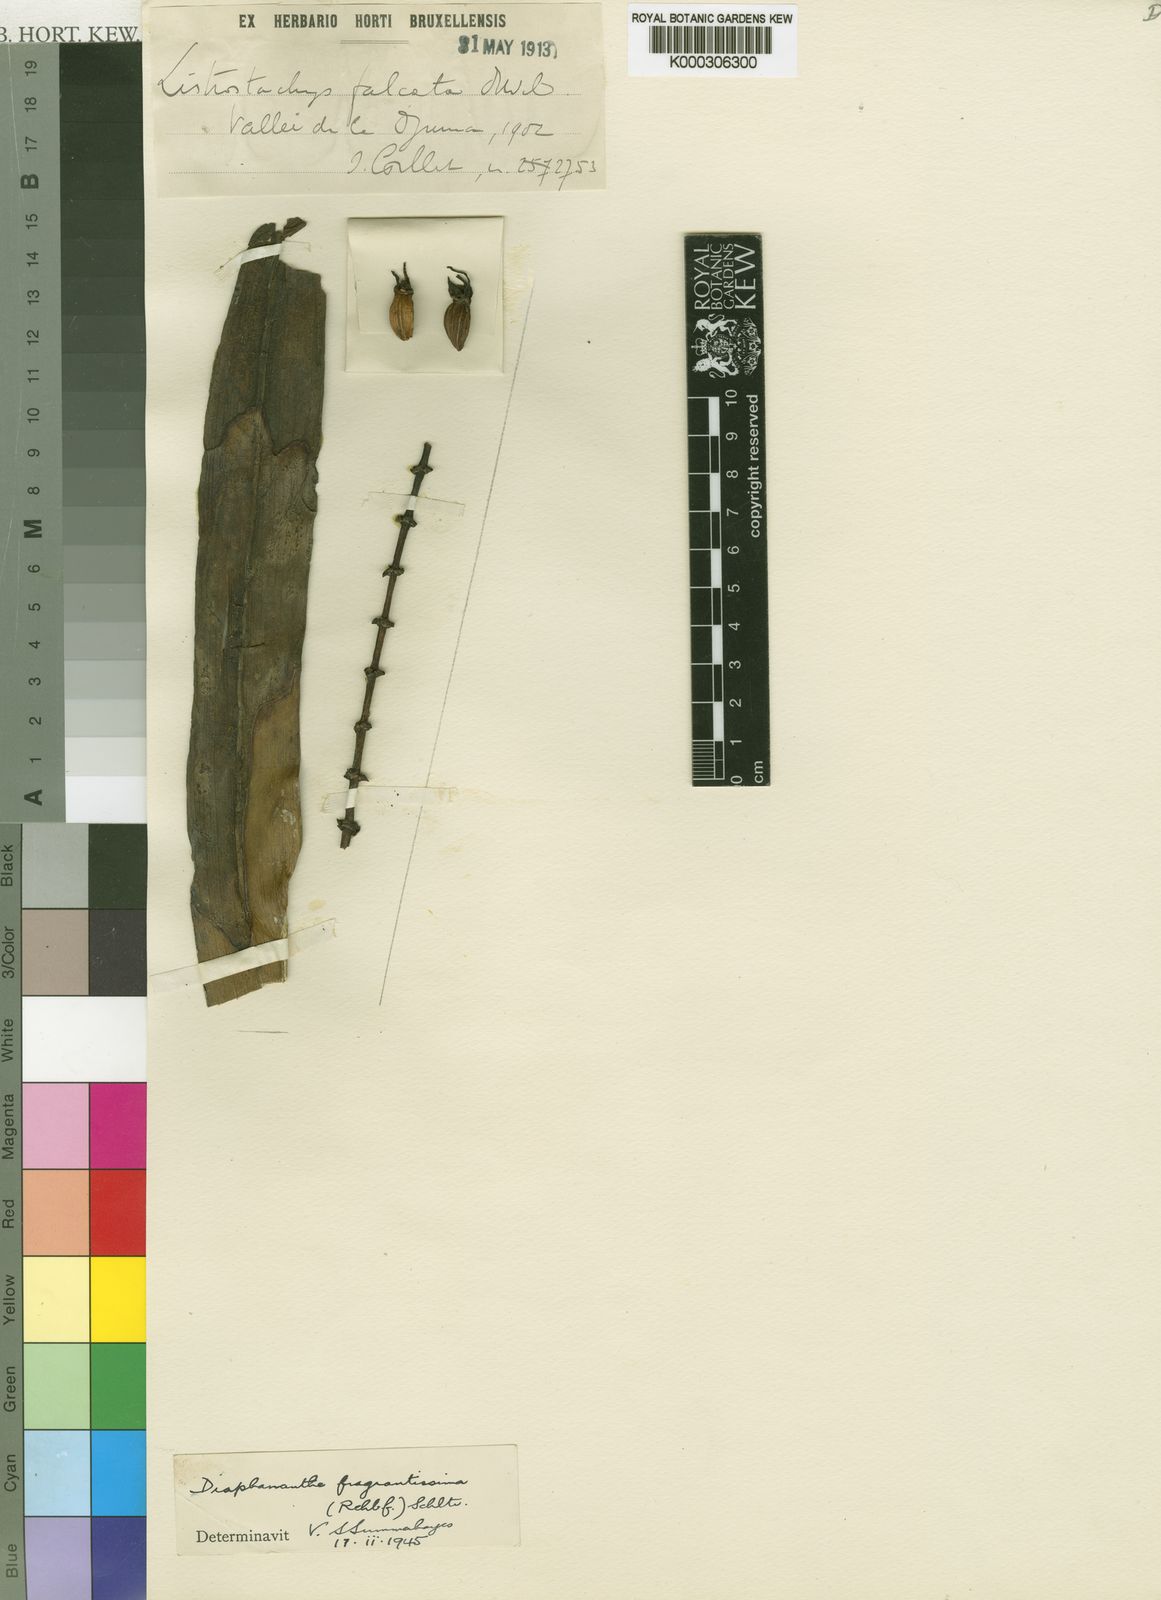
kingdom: Plantae
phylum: Tracheophyta
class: Liliopsida
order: Asparagales
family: Orchidaceae
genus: Diaphananthe
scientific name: Diaphananthe fragrantissima
